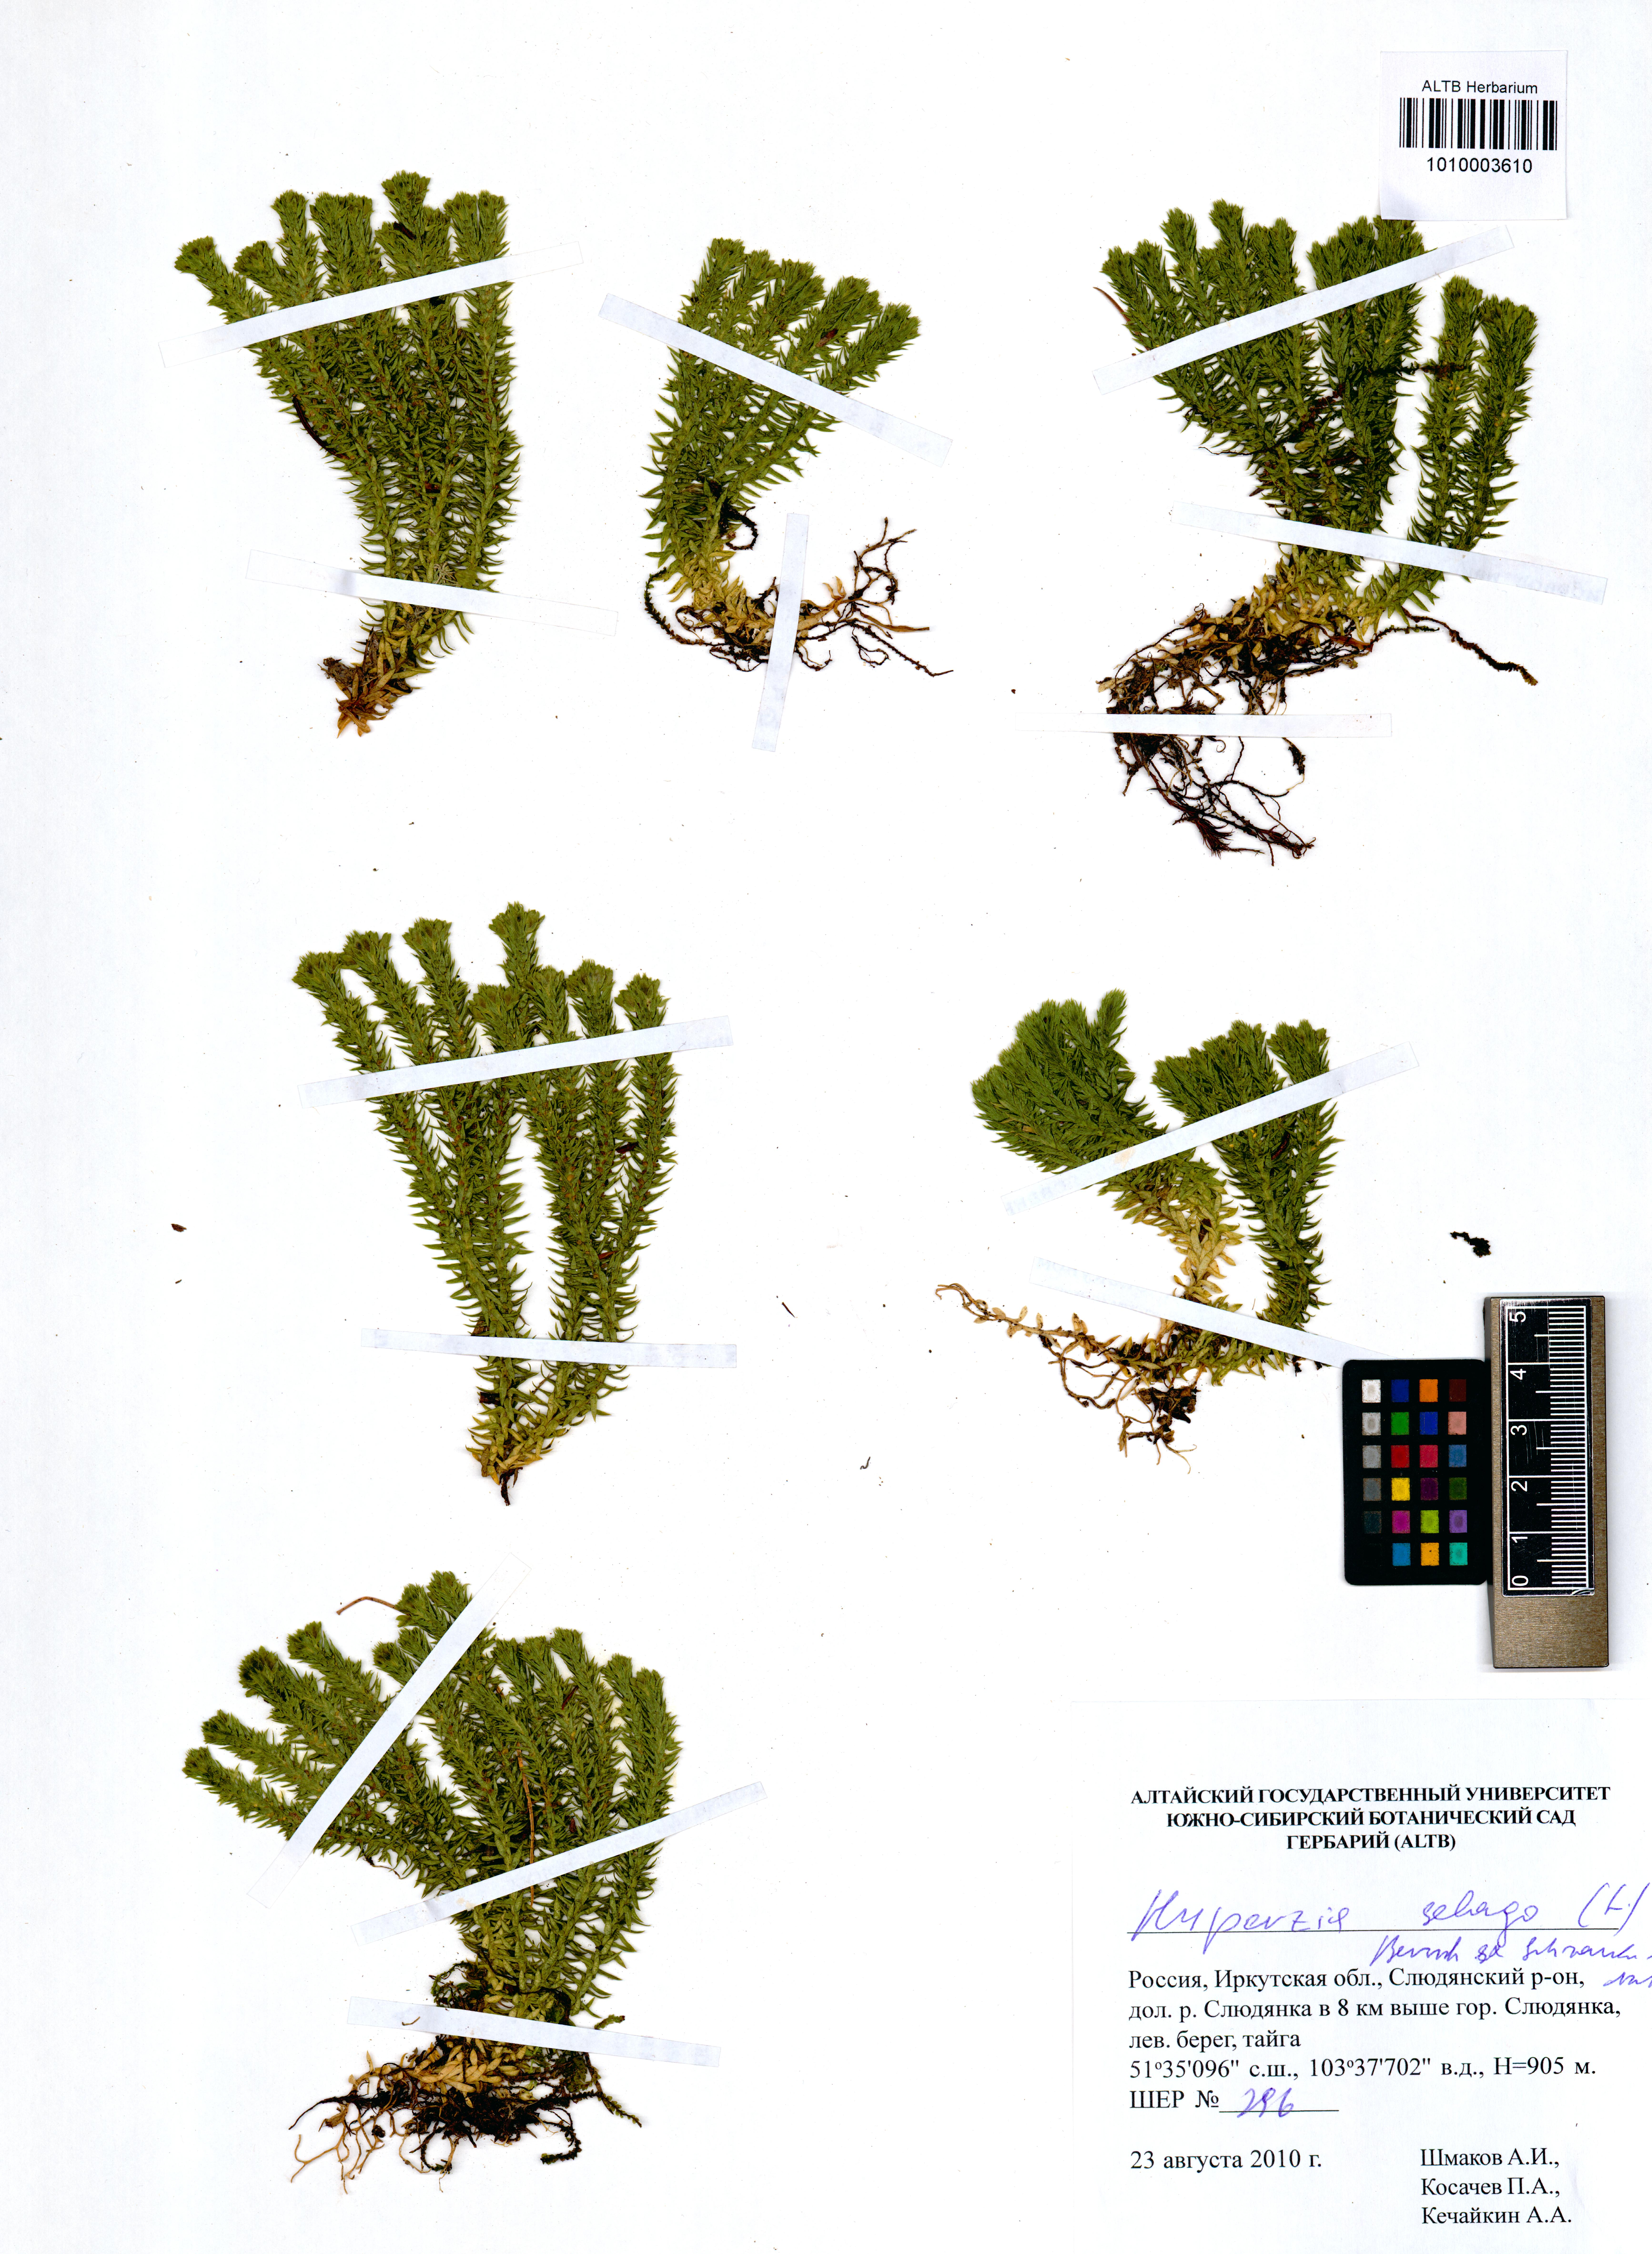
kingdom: Plantae
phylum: Tracheophyta
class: Lycopodiopsida
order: Lycopodiales
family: Lycopodiaceae
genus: Huperzia
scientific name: Huperzia selago
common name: Northern firmoss
